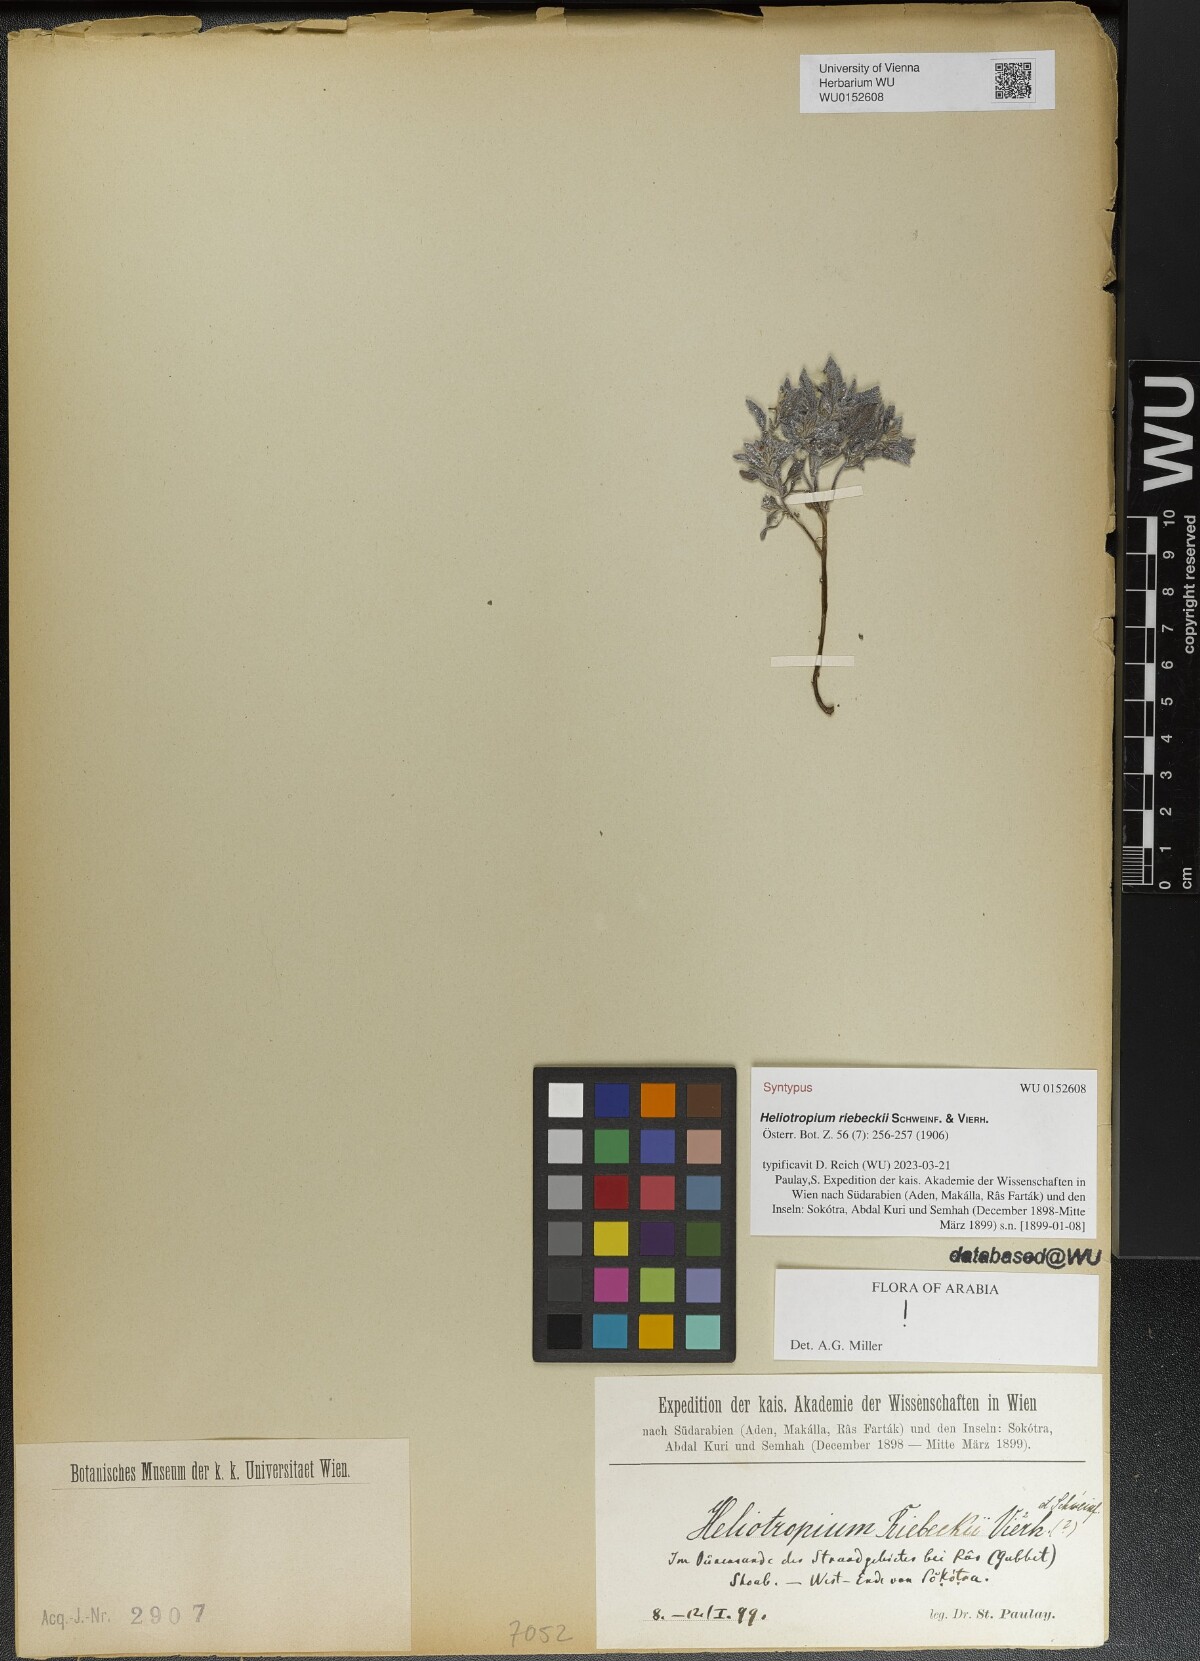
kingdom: Plantae
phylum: Tracheophyta
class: Magnoliopsida
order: Boraginales
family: Heliotropiaceae
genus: Heliotropium
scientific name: Heliotropium riebeckii
